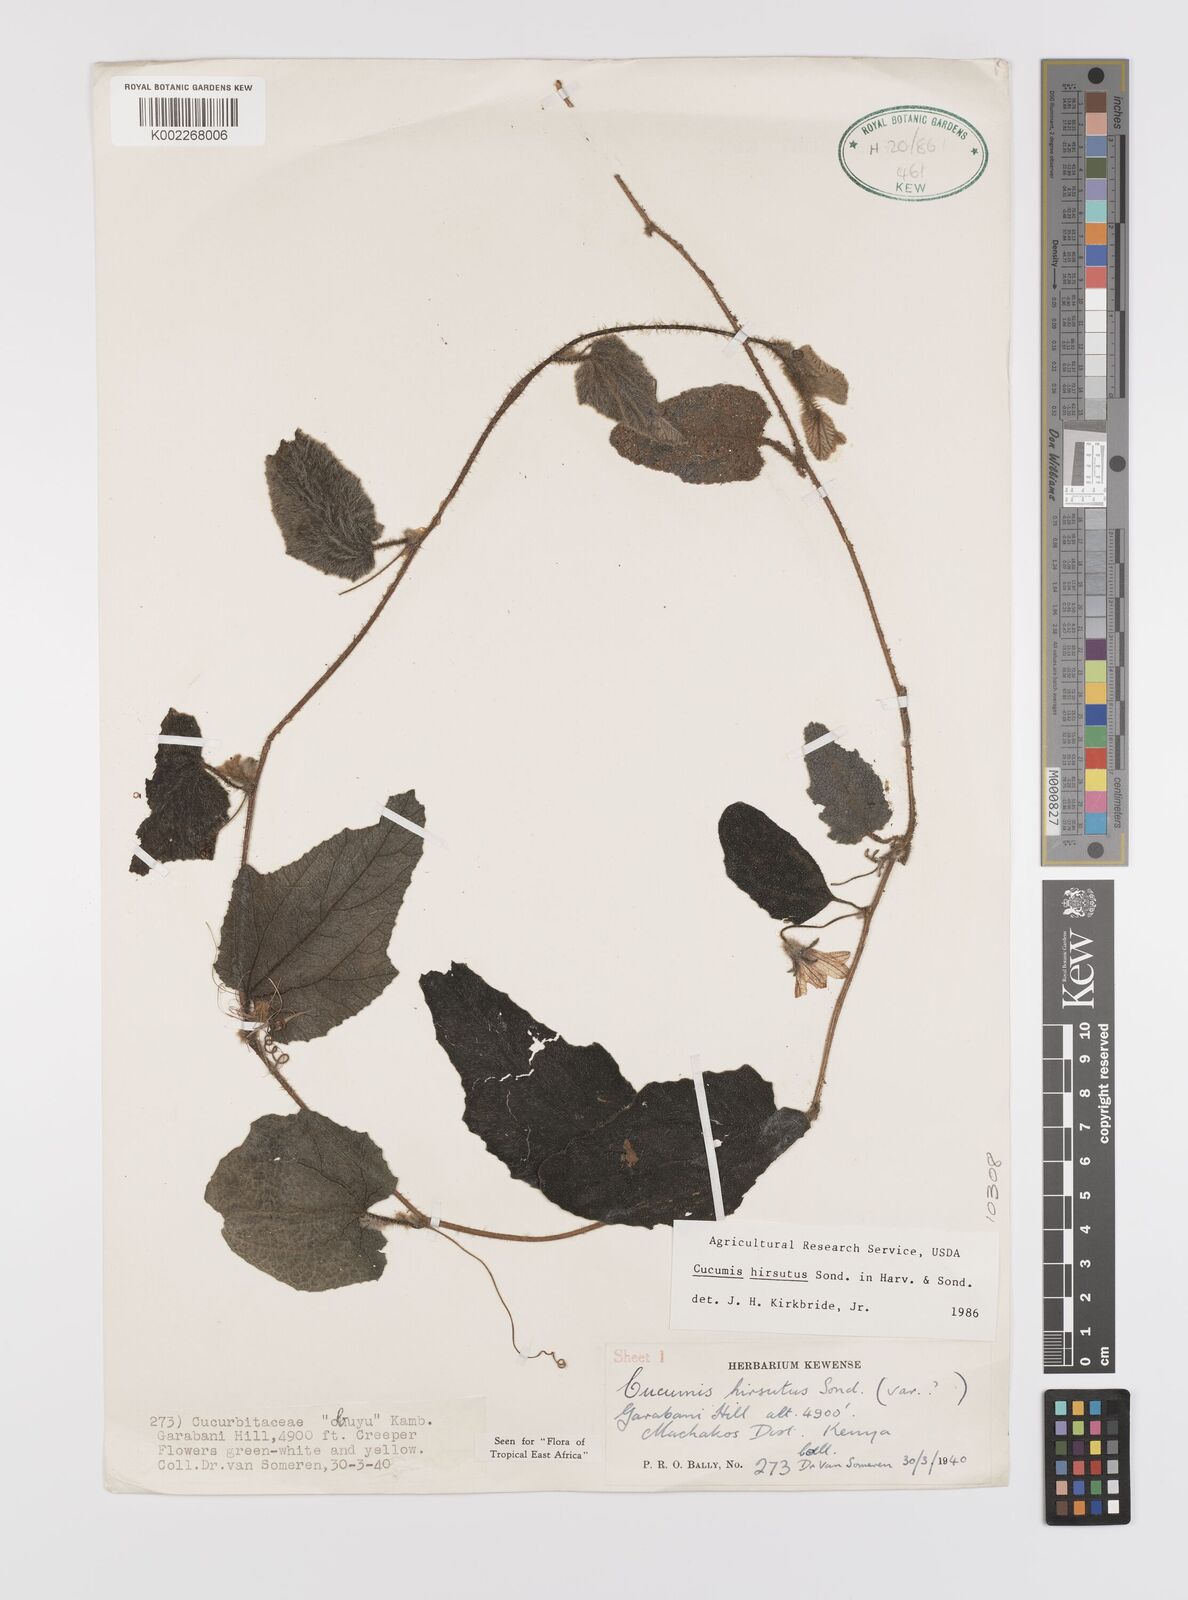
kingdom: Plantae
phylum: Tracheophyta
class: Magnoliopsida
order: Cucurbitales
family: Cucurbitaceae
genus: Cucumis
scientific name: Cucumis hirsutus
